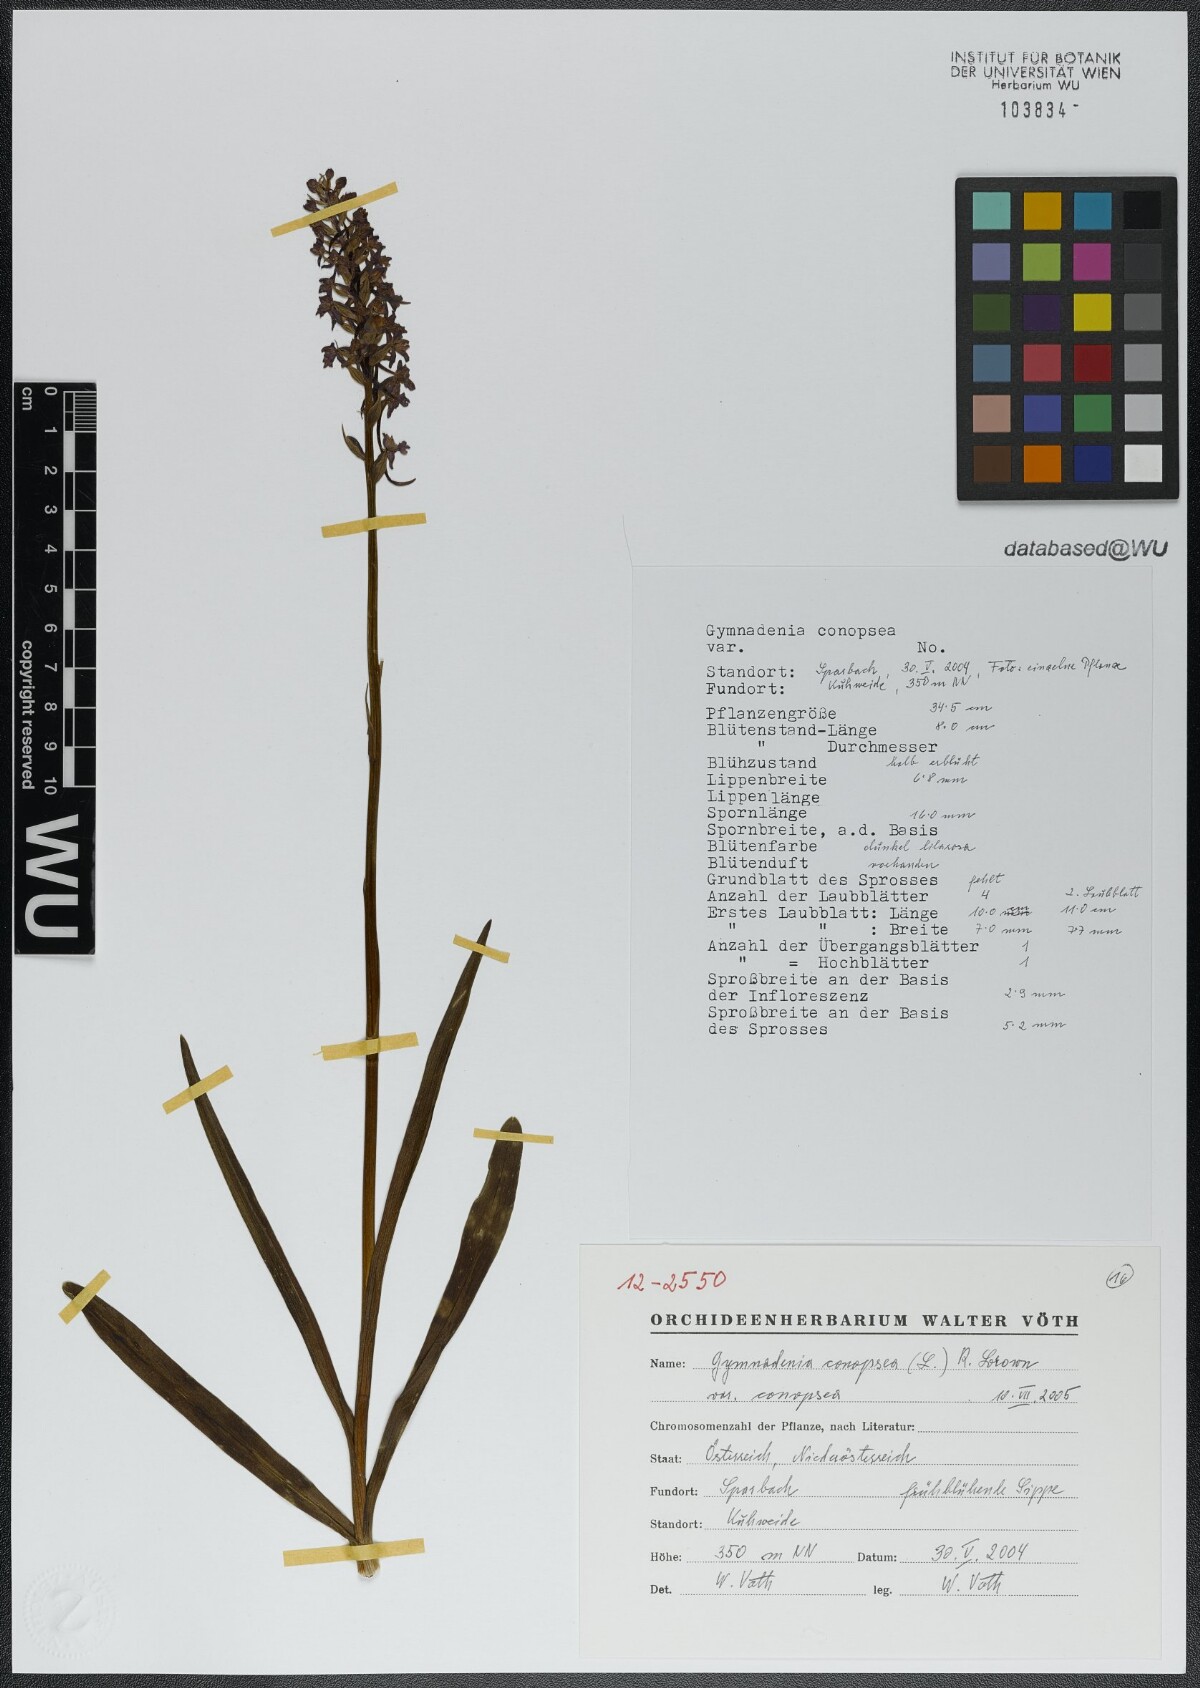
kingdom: Plantae
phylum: Tracheophyta
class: Liliopsida
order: Asparagales
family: Orchidaceae
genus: Gymnadenia
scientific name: Gymnadenia conopsea
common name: Fragrant orchid
